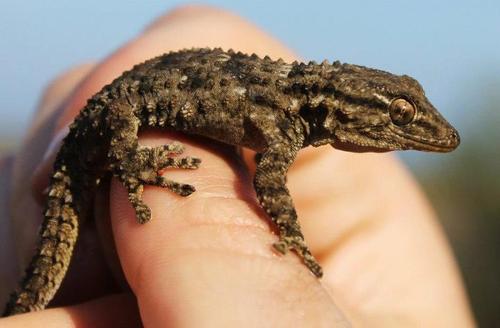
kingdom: Animalia
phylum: Chordata
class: Squamata
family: Phyllodactylidae
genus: Tarentola
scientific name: Tarentola mauritanica
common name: Moorish gecko
